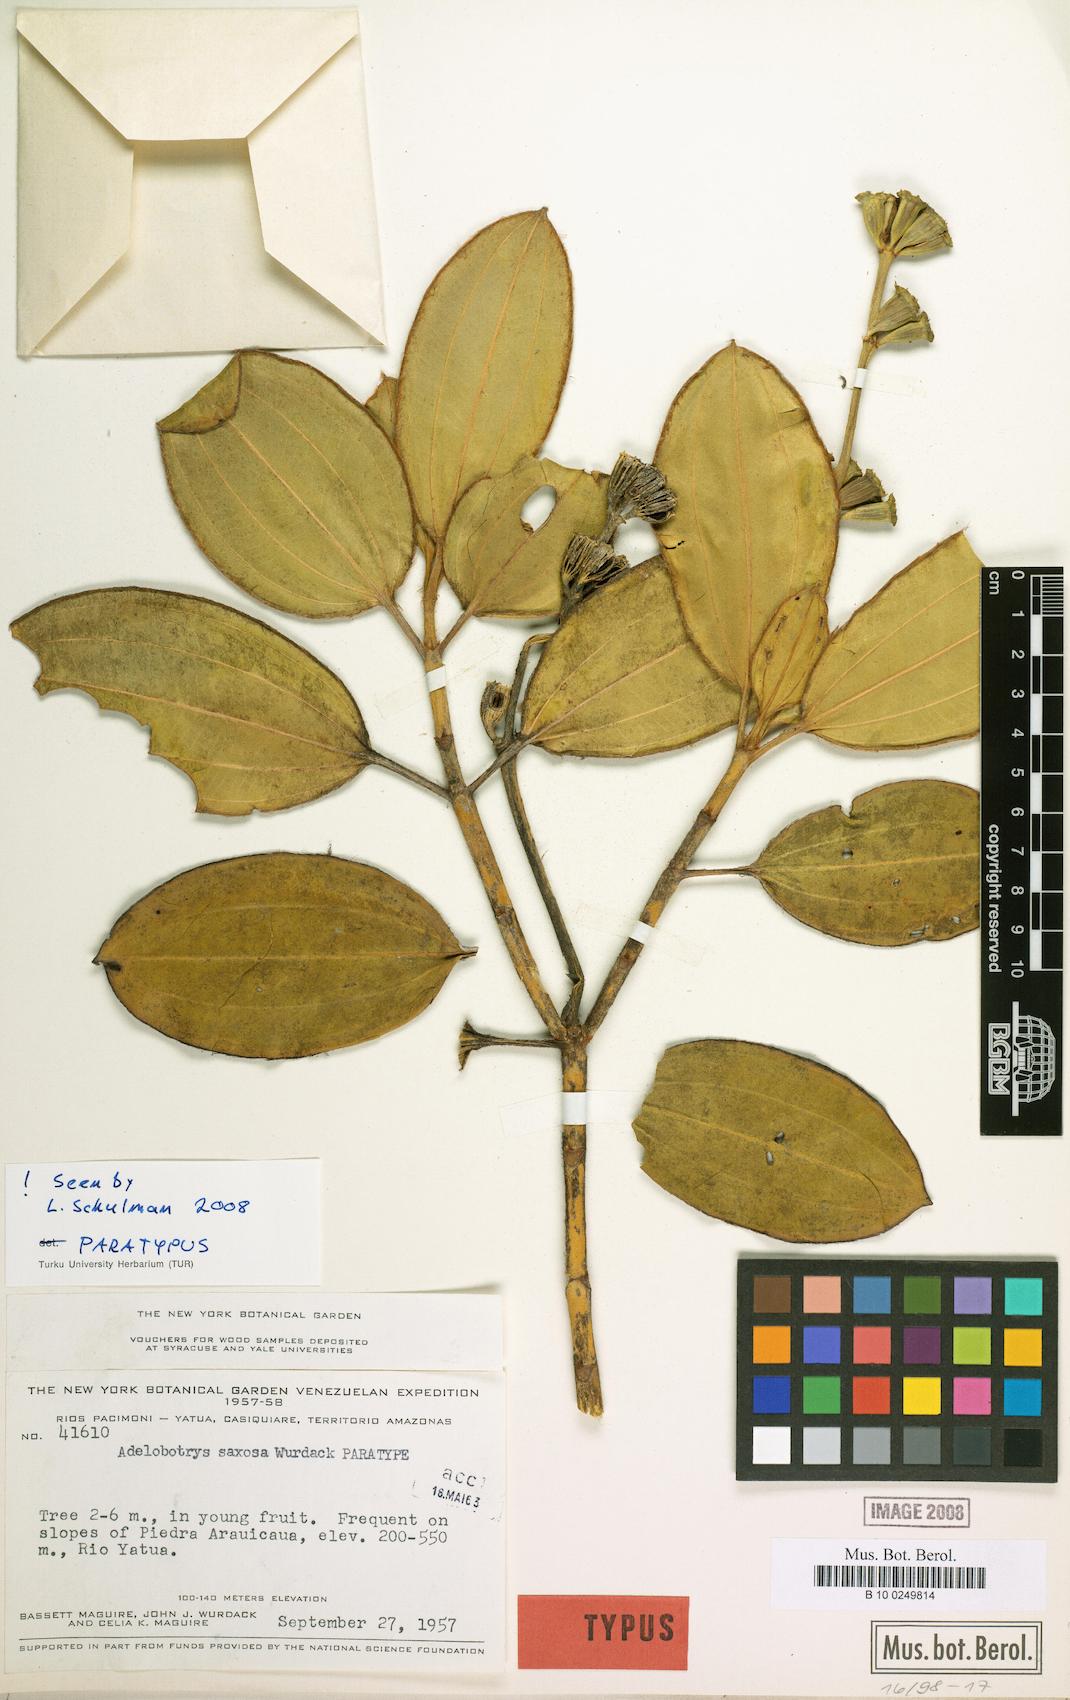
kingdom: Plantae
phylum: Tracheophyta
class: Magnoliopsida
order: Myrtales
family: Melastomataceae
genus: Adelobotrys
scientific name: Adelobotrys saxosus
